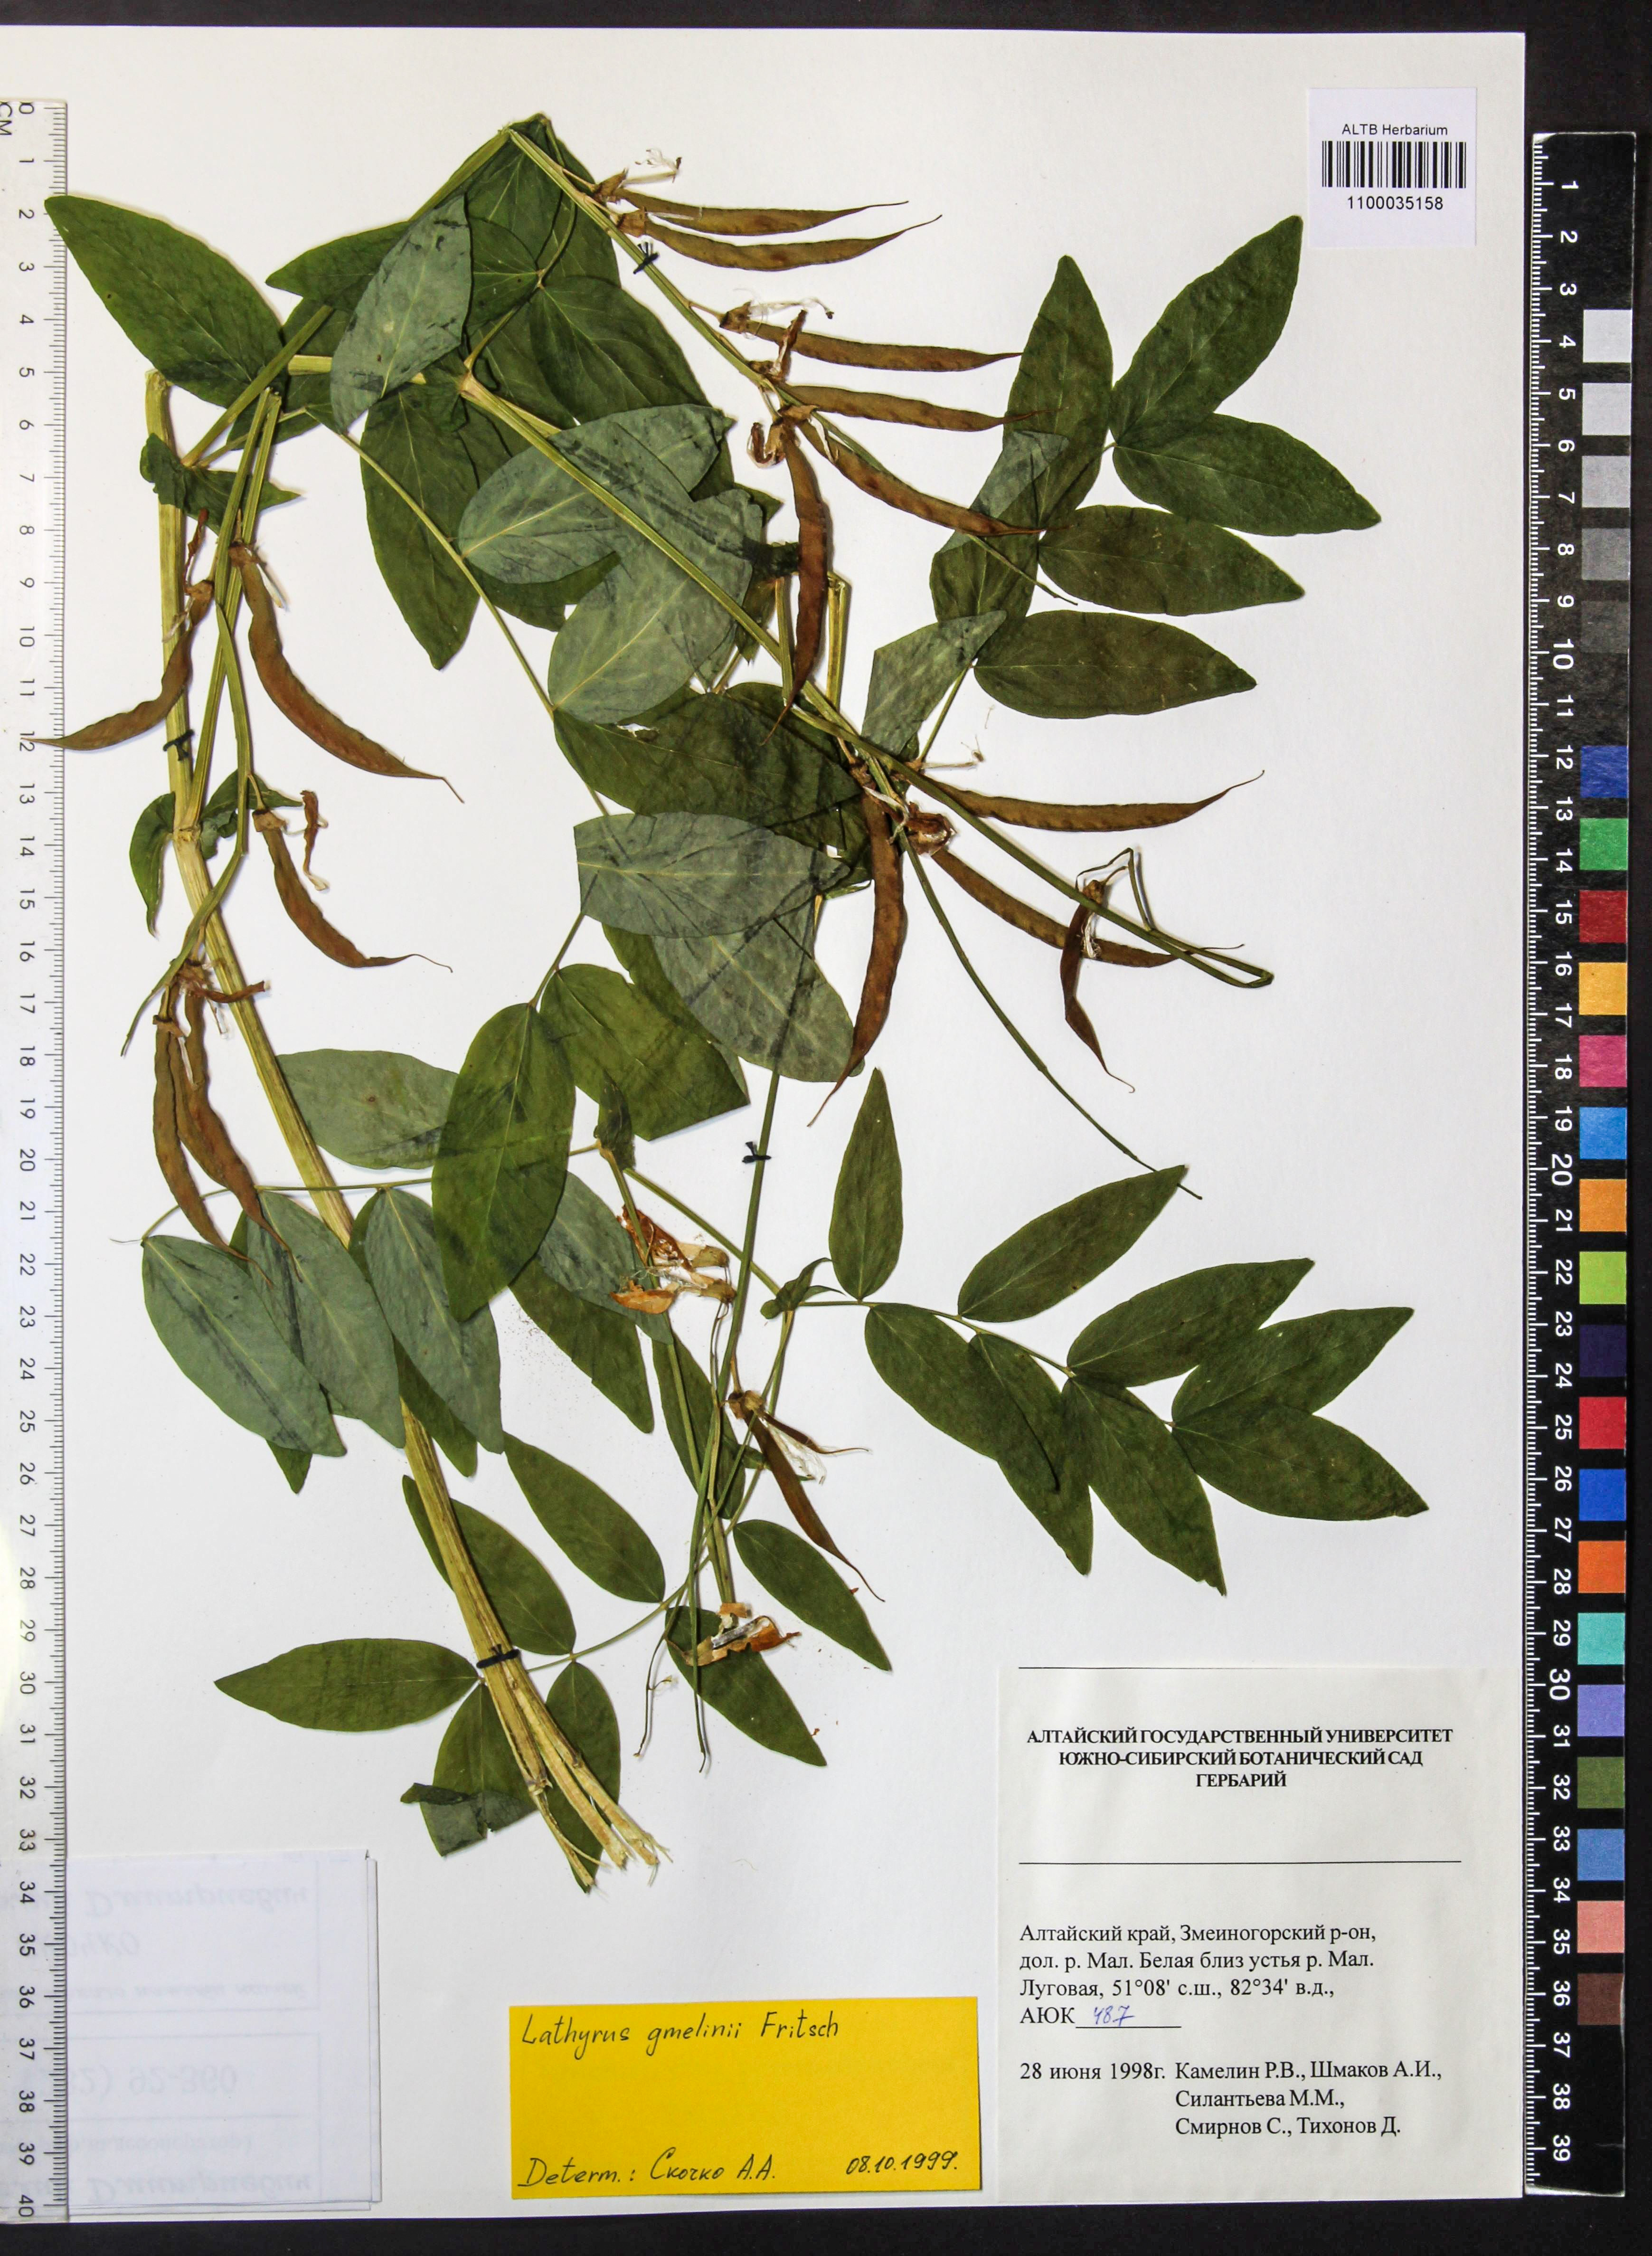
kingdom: Plantae
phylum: Tracheophyta
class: Magnoliopsida
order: Fabales
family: Fabaceae
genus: Lathyrus
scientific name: Lathyrus gmelinii
